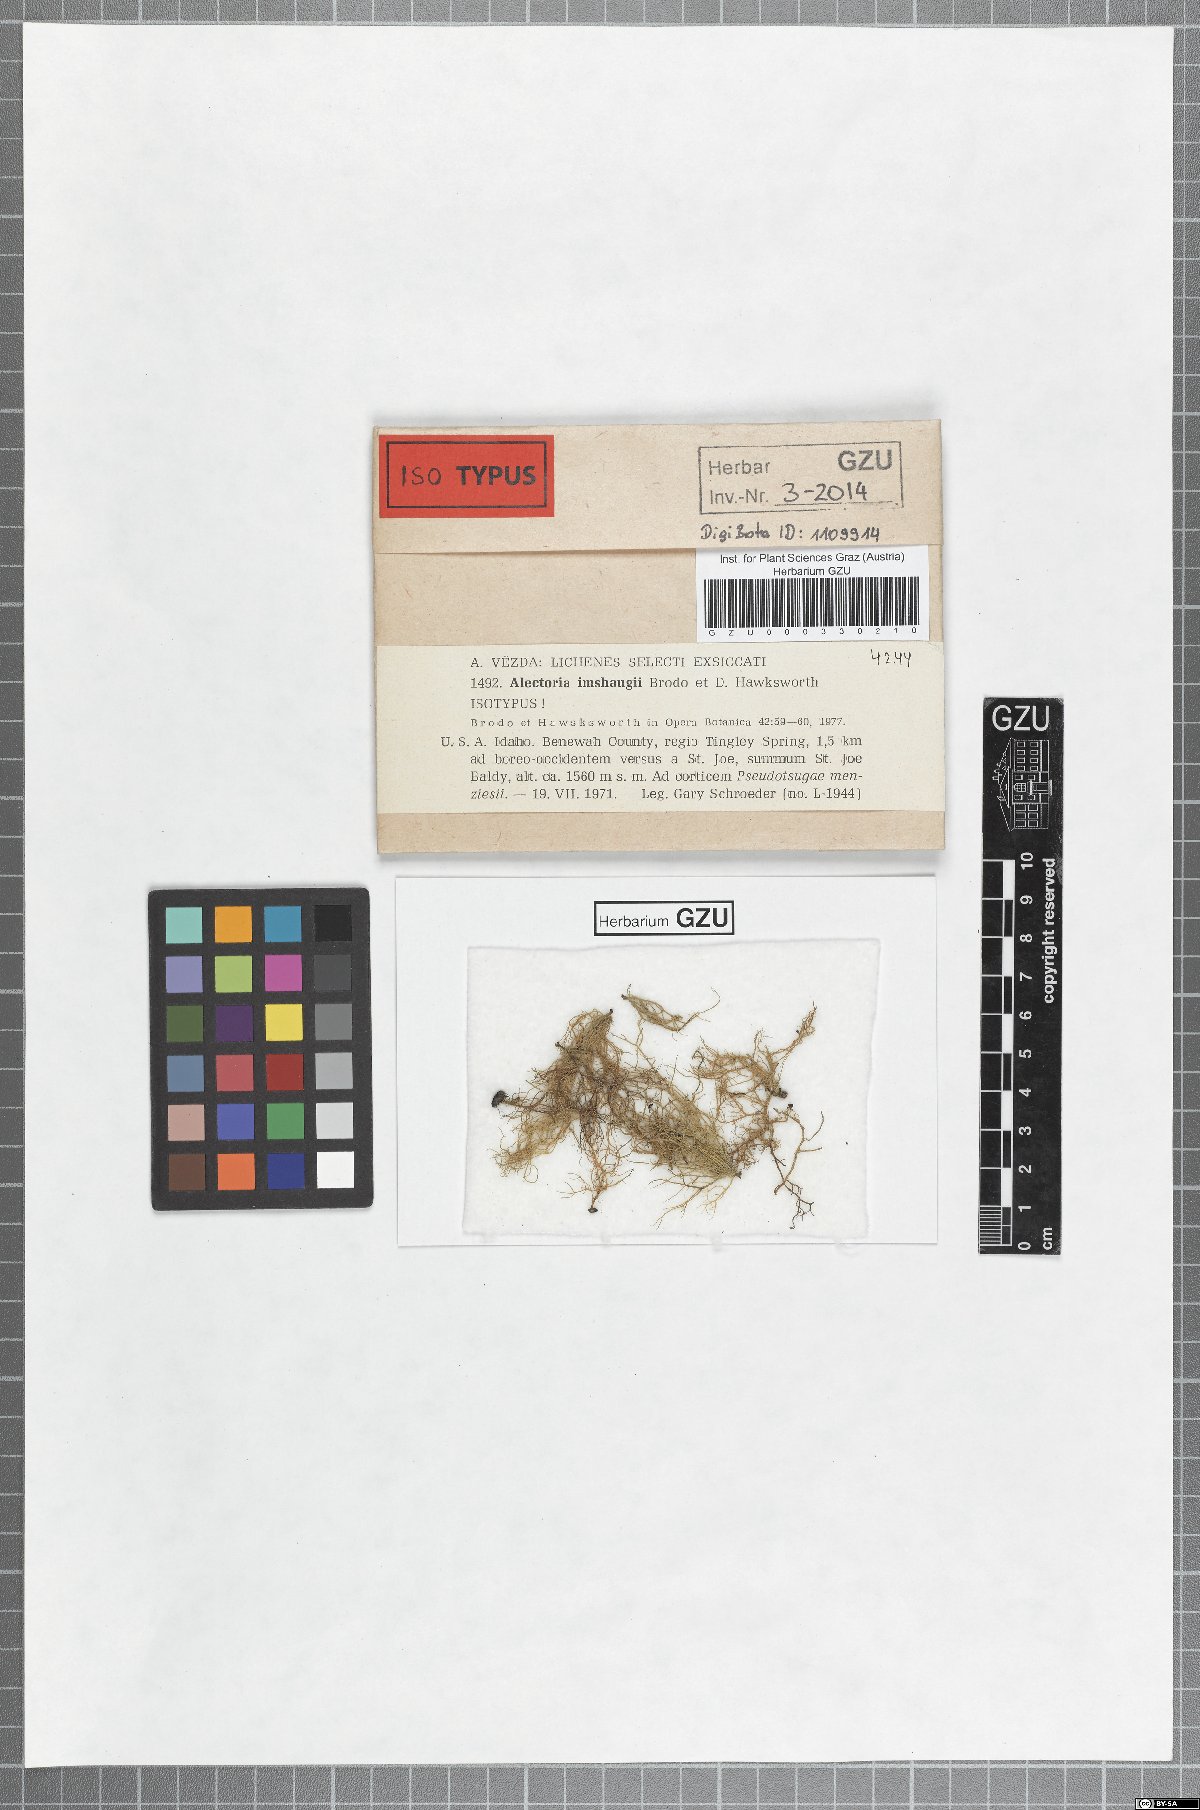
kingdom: Fungi
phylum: Ascomycota
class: Lecanoromycetes
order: Lecanorales
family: Parmeliaceae
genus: Alectoria
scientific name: Alectoria imshaugii
